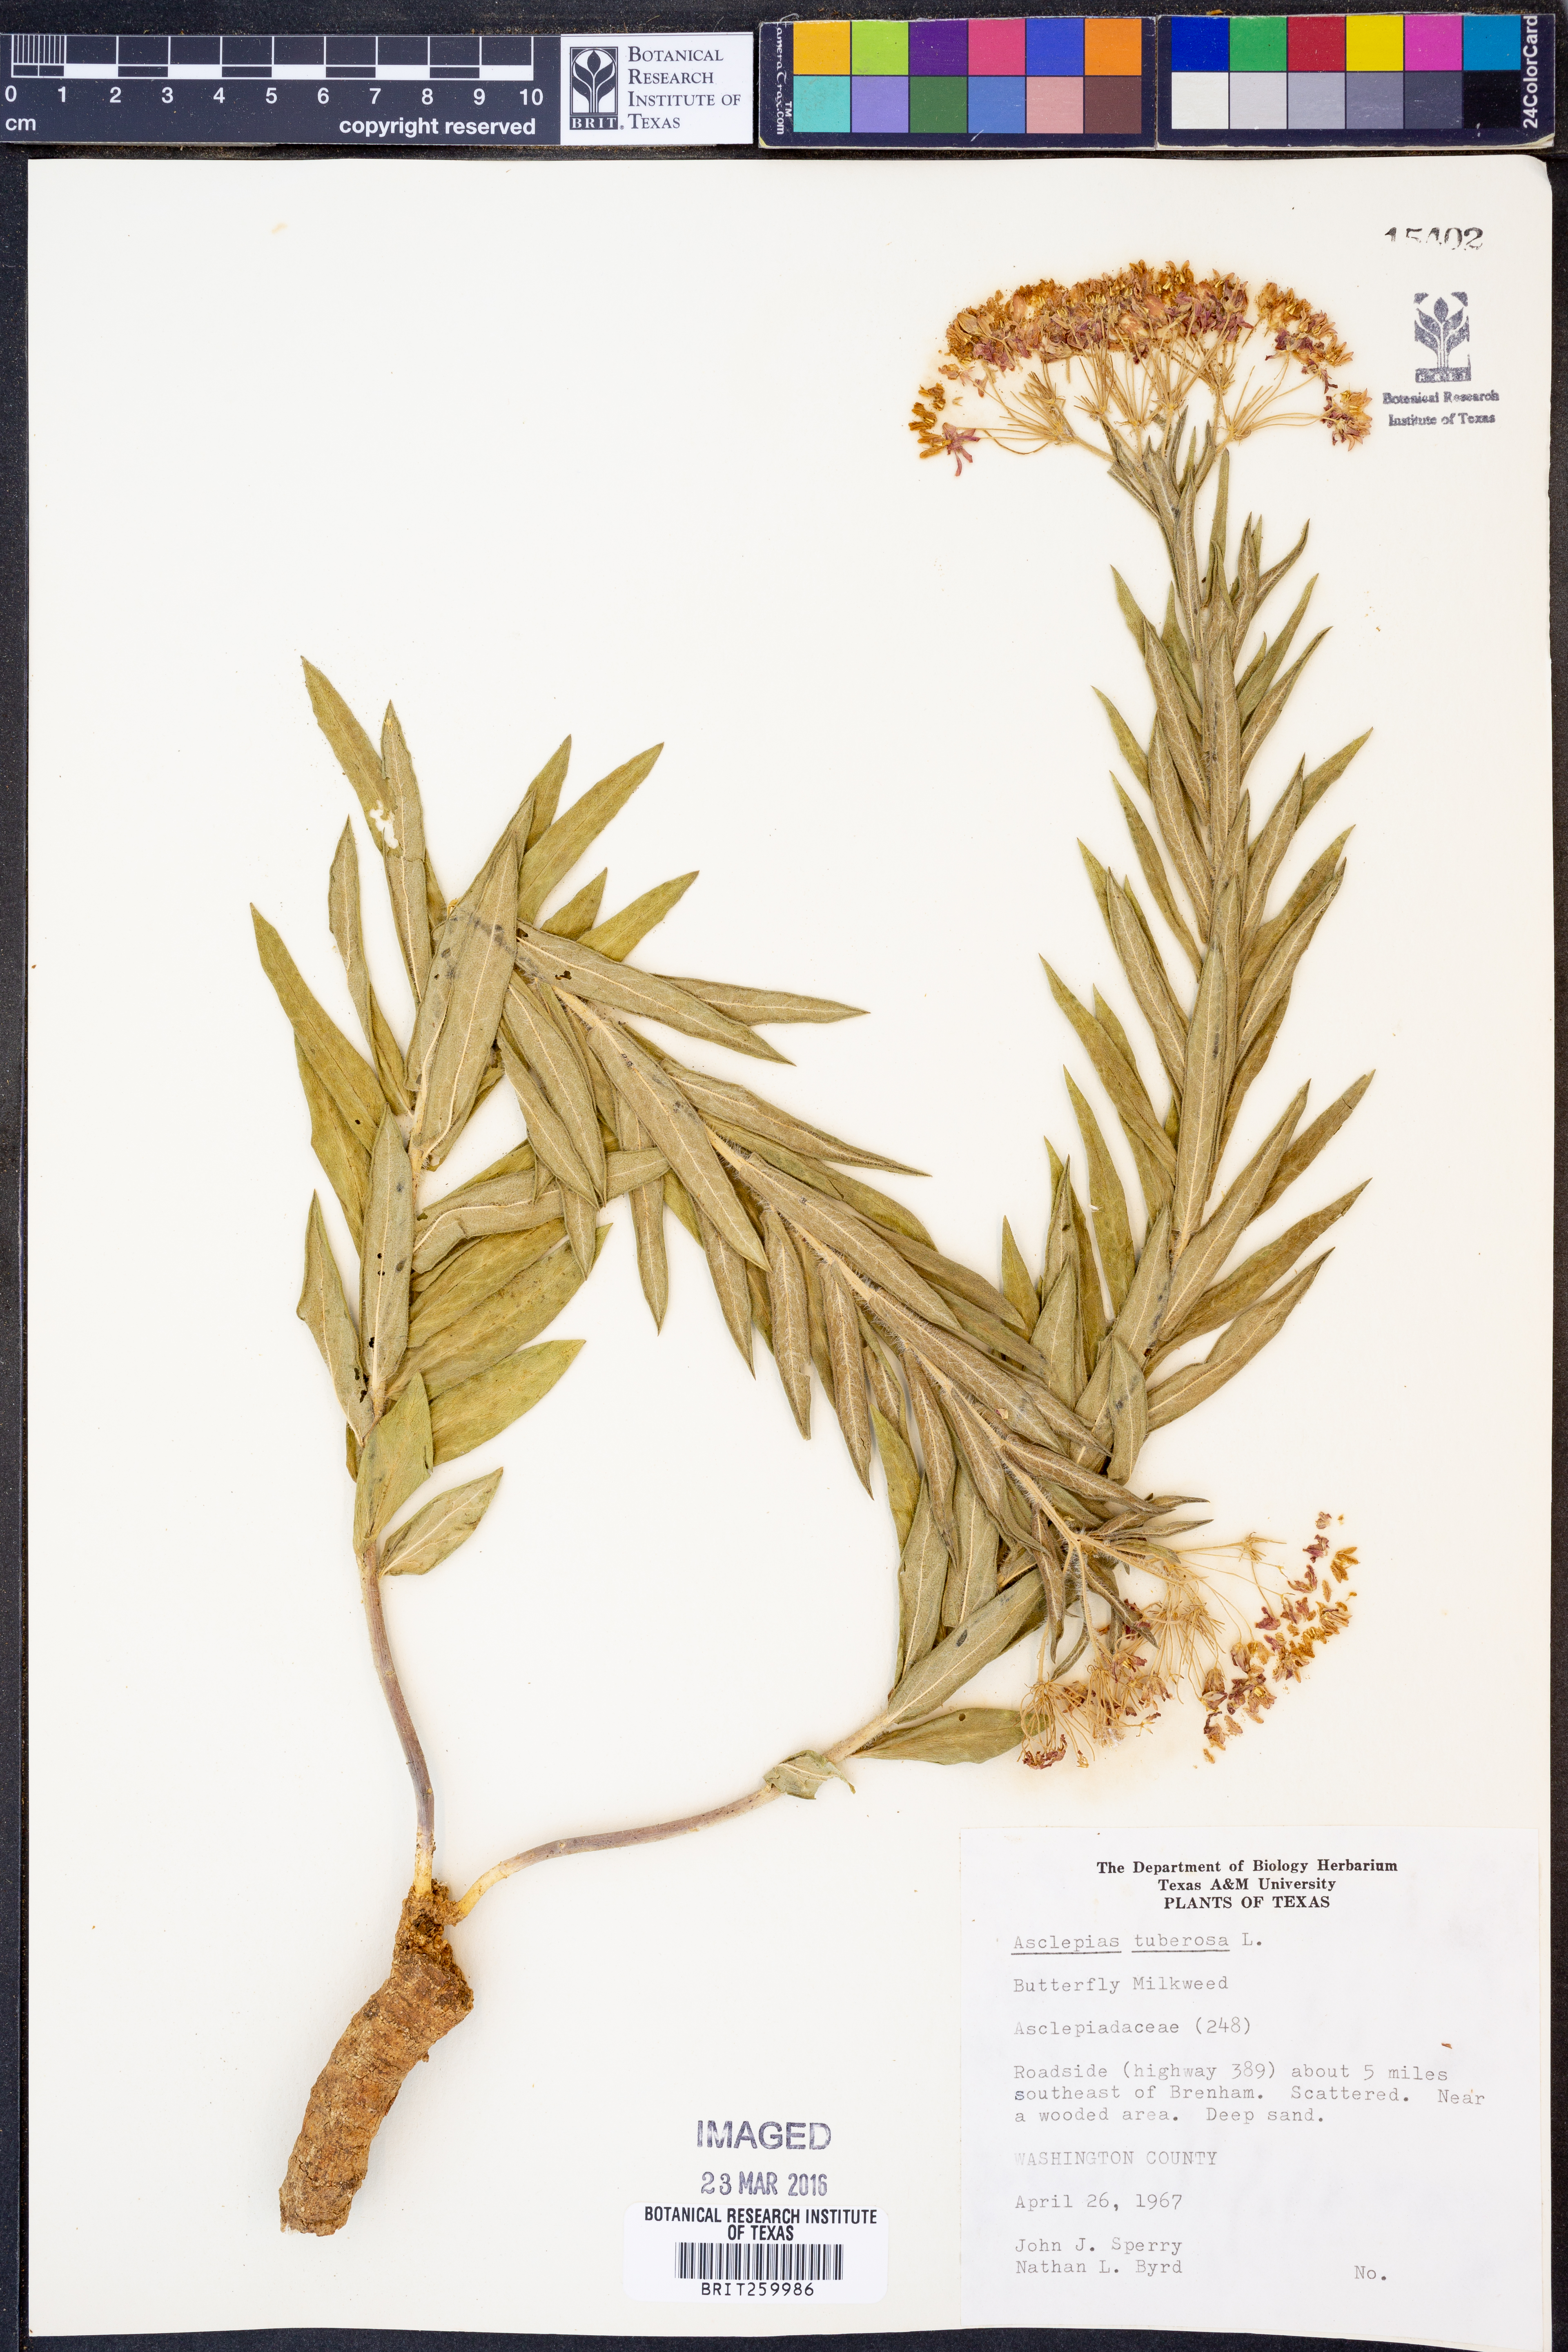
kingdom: Plantae
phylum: Tracheophyta
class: Magnoliopsida
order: Gentianales
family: Apocynaceae
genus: Asclepias
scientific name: Asclepias tuberosa
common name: Butterfly milkweed
